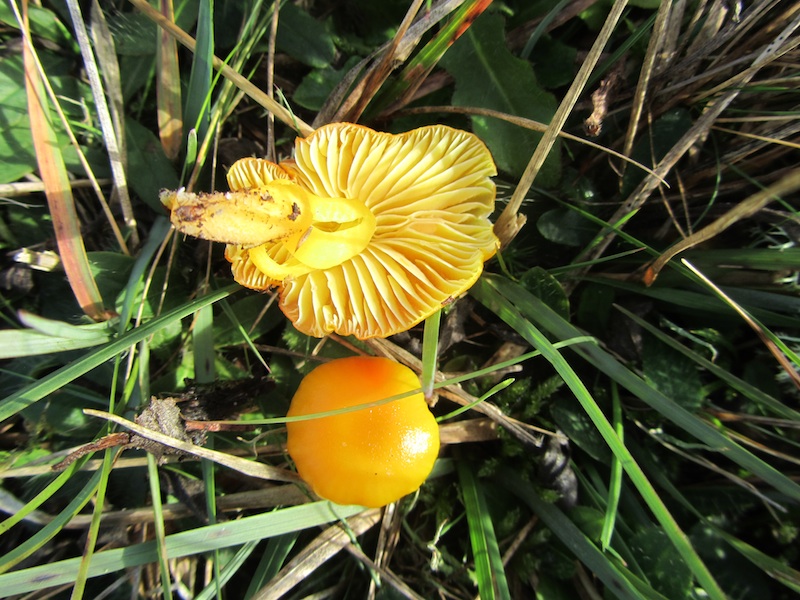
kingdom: Fungi
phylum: Basidiomycota
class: Agaricomycetes
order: Agaricales
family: Hygrophoraceae
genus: Hygrocybe
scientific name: Hygrocybe ceracea
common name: voksgul vokshat
